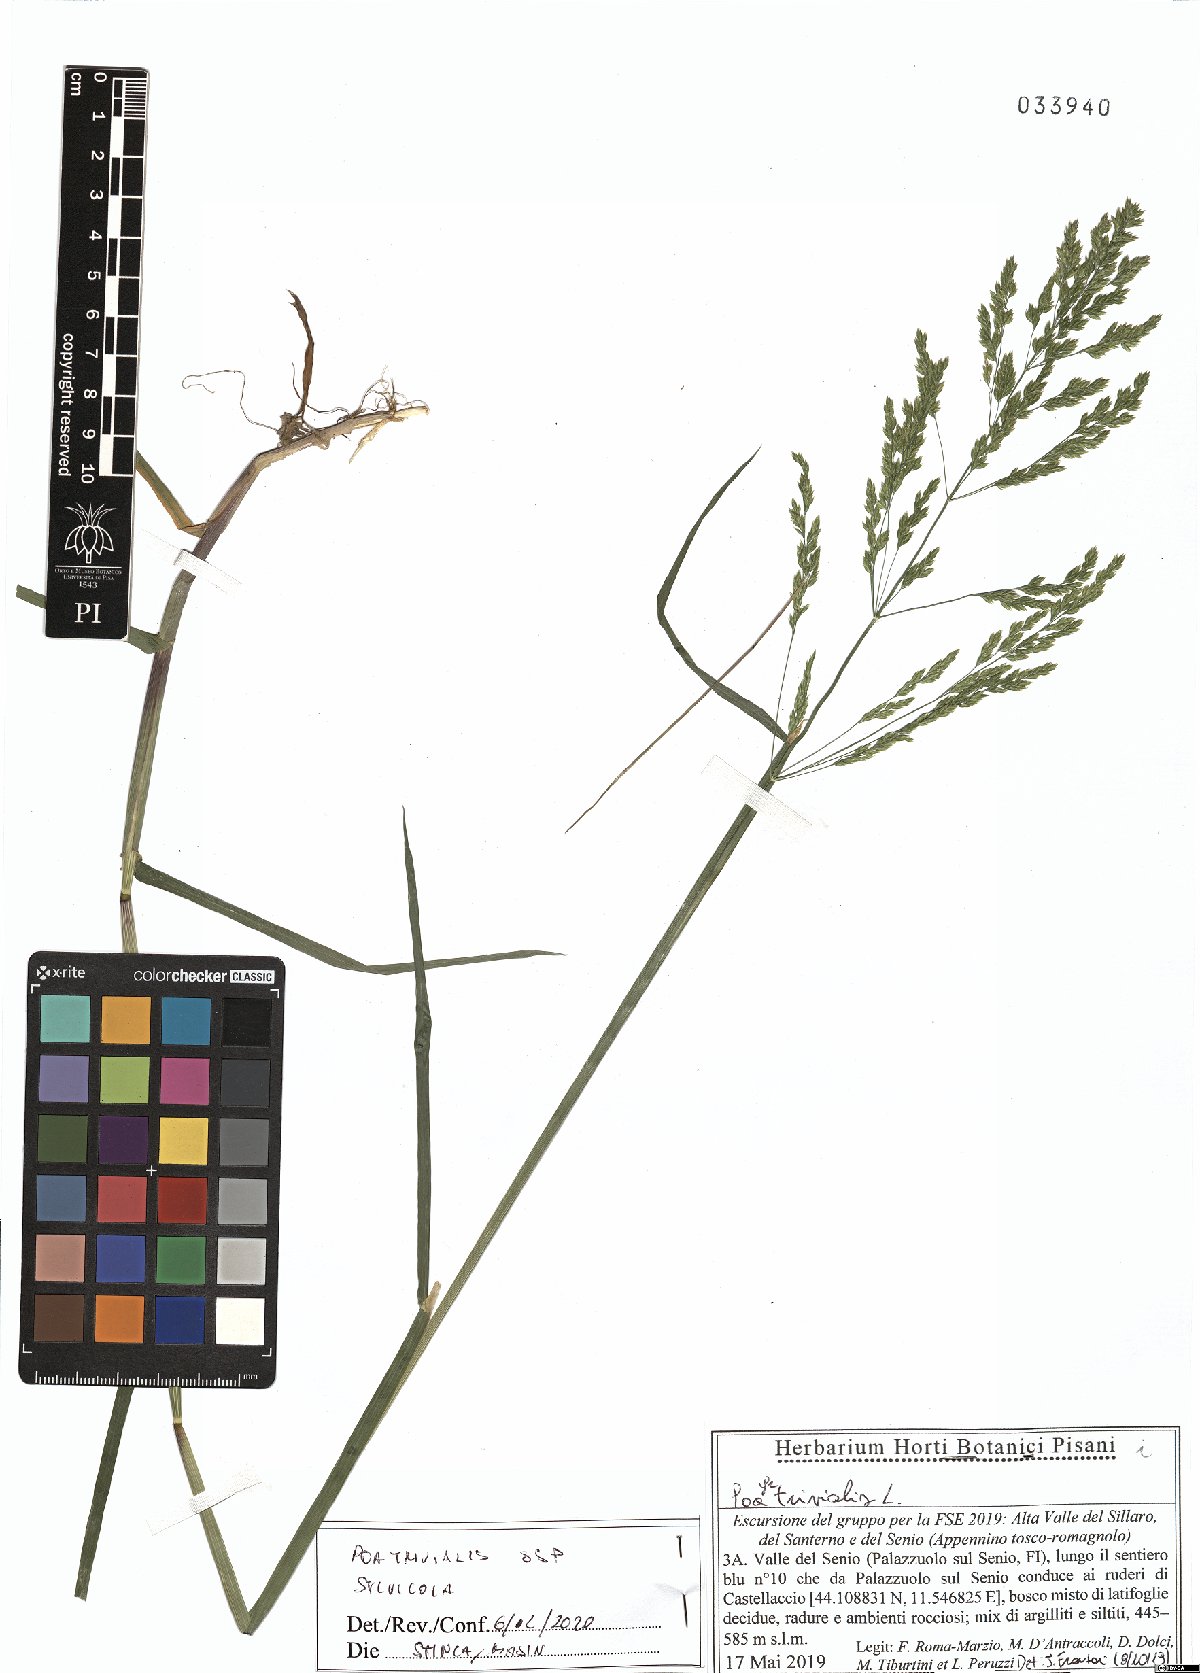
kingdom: Plantae
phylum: Tracheophyta
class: Liliopsida
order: Poales
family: Poaceae
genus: Poa
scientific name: Poa trivialis
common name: Rough bluegrass
